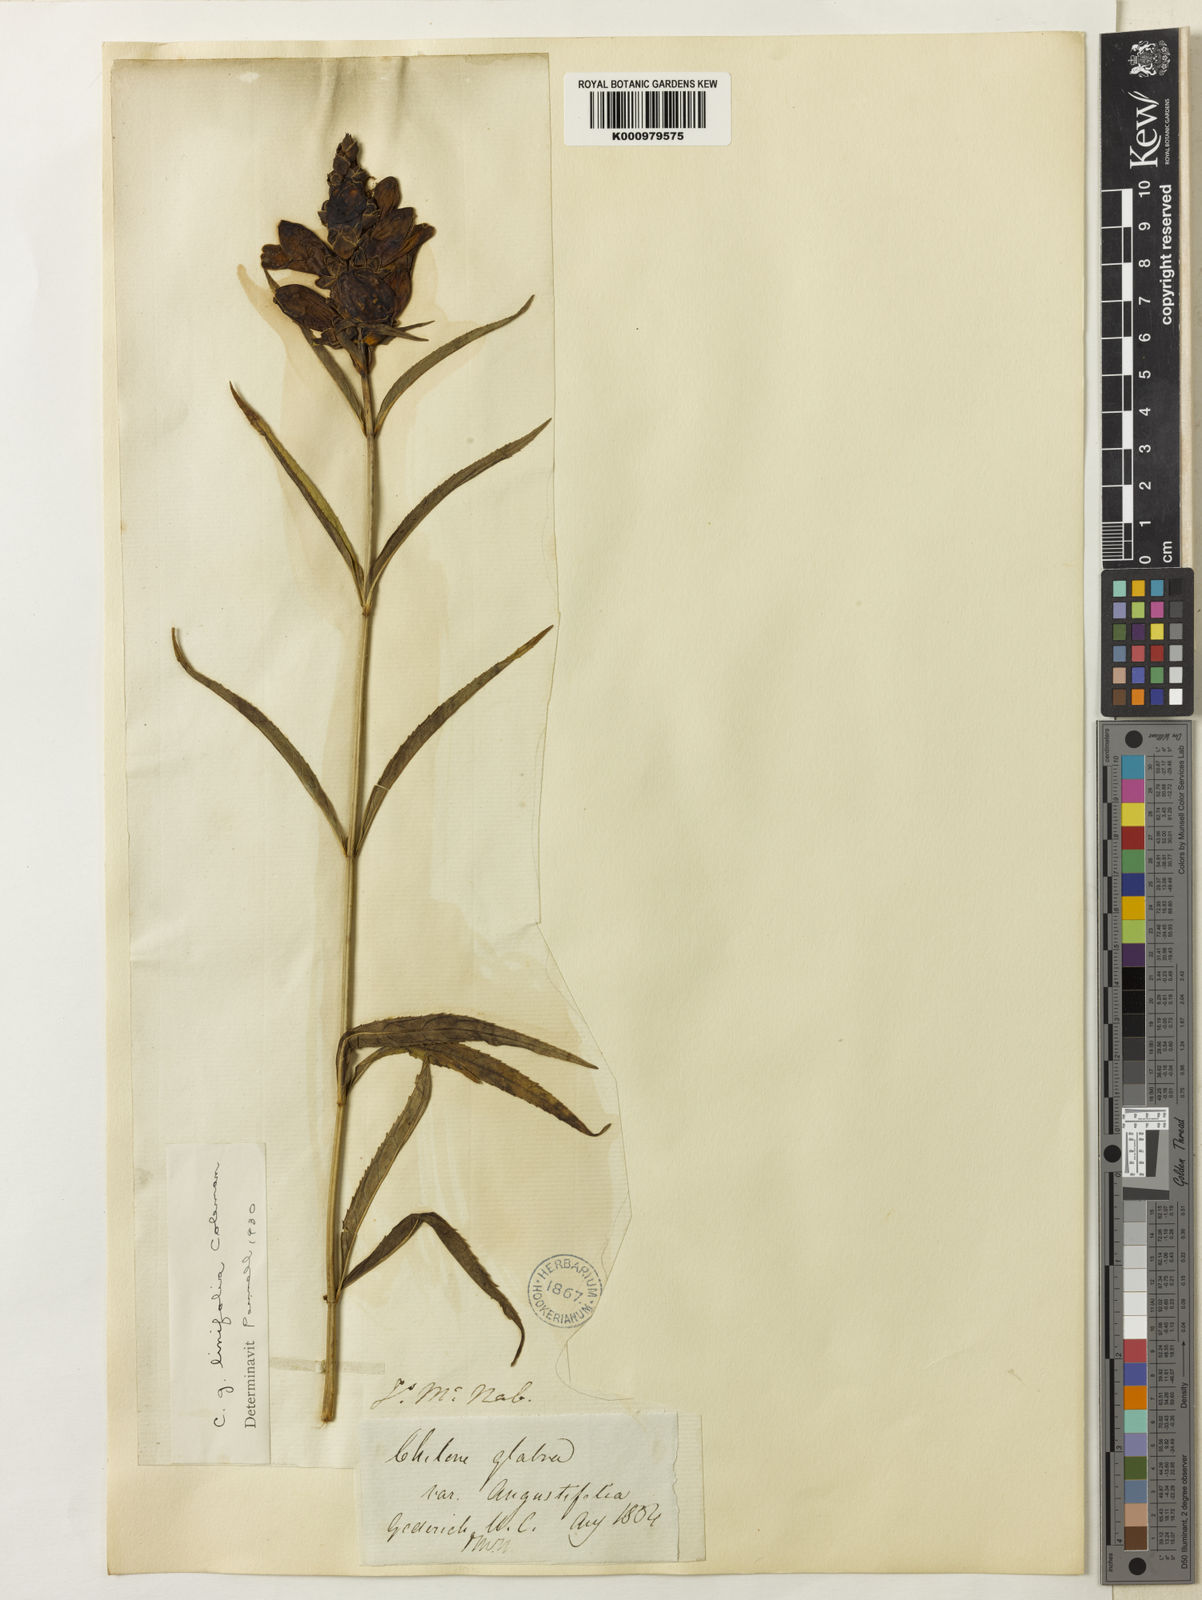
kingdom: Plantae
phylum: Tracheophyta
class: Magnoliopsida
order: Lamiales
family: Plantaginaceae
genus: Chelone
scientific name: Chelone glabra
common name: Snakehead
